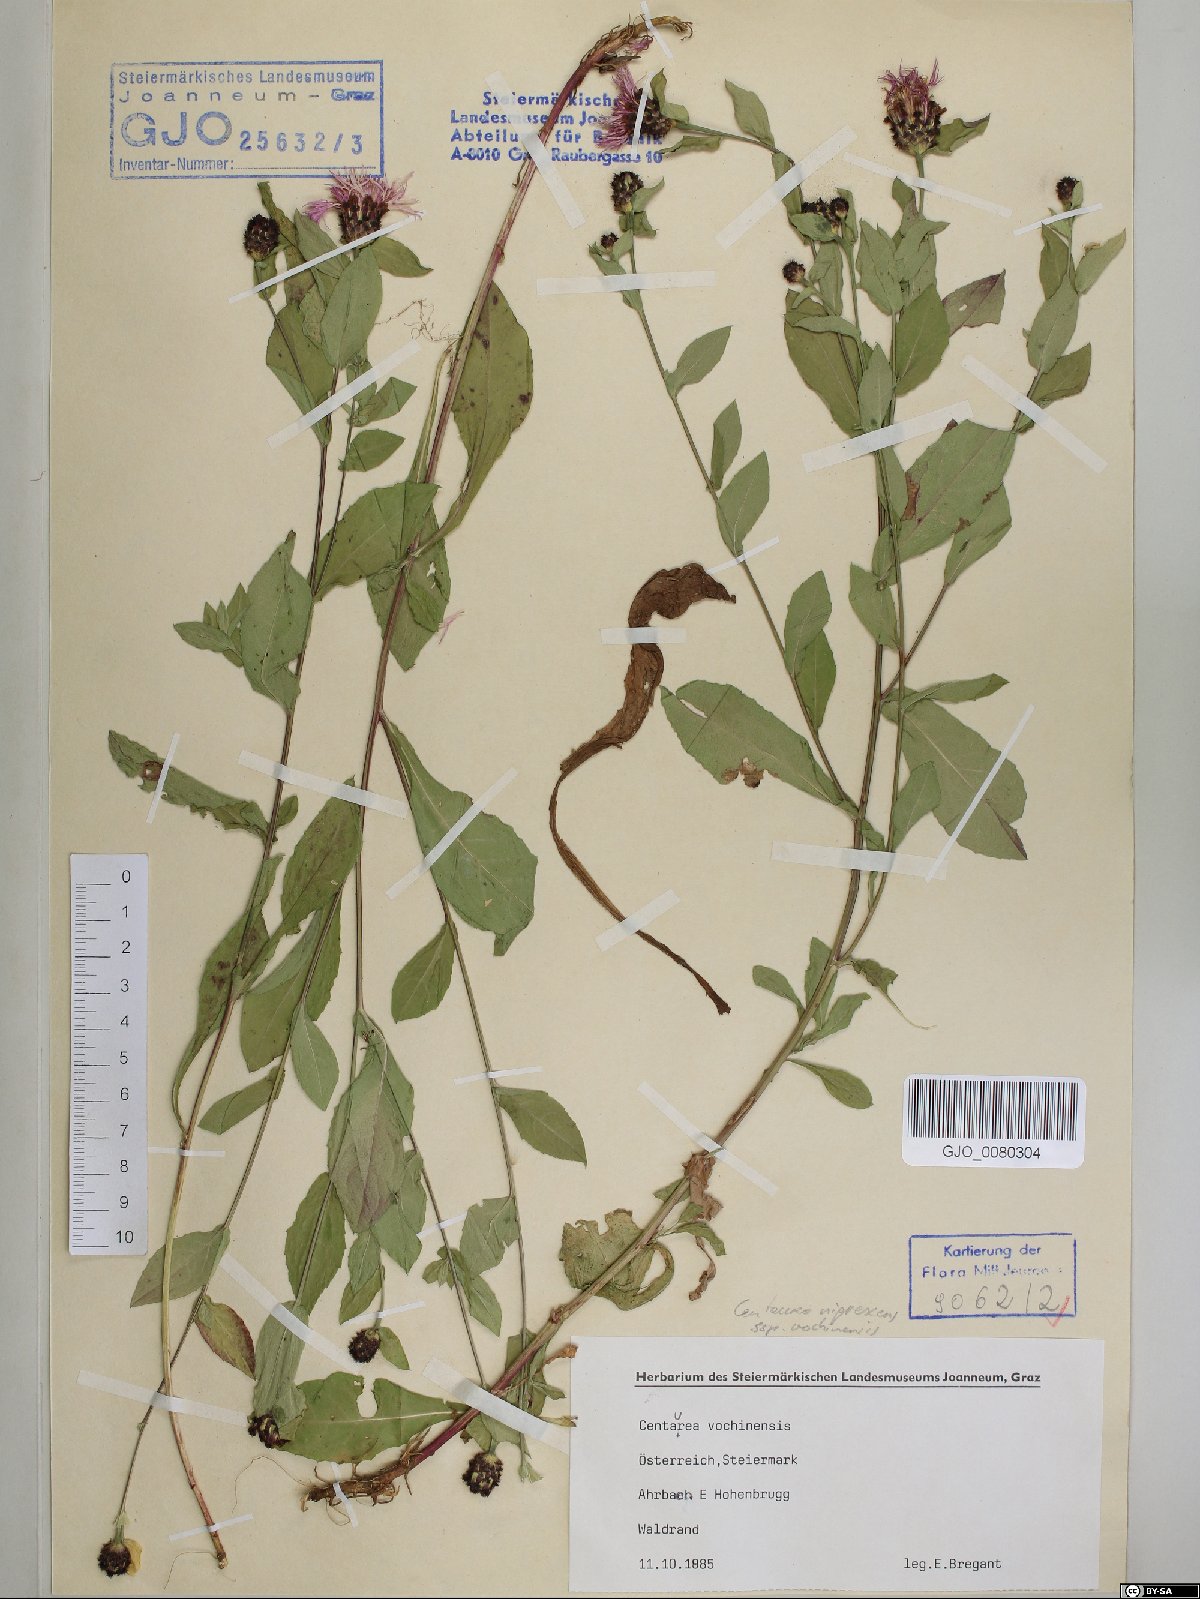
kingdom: Plantae
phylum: Tracheophyta
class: Magnoliopsida
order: Asterales
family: Asteraceae
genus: Centaurea
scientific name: Centaurea carniolica
